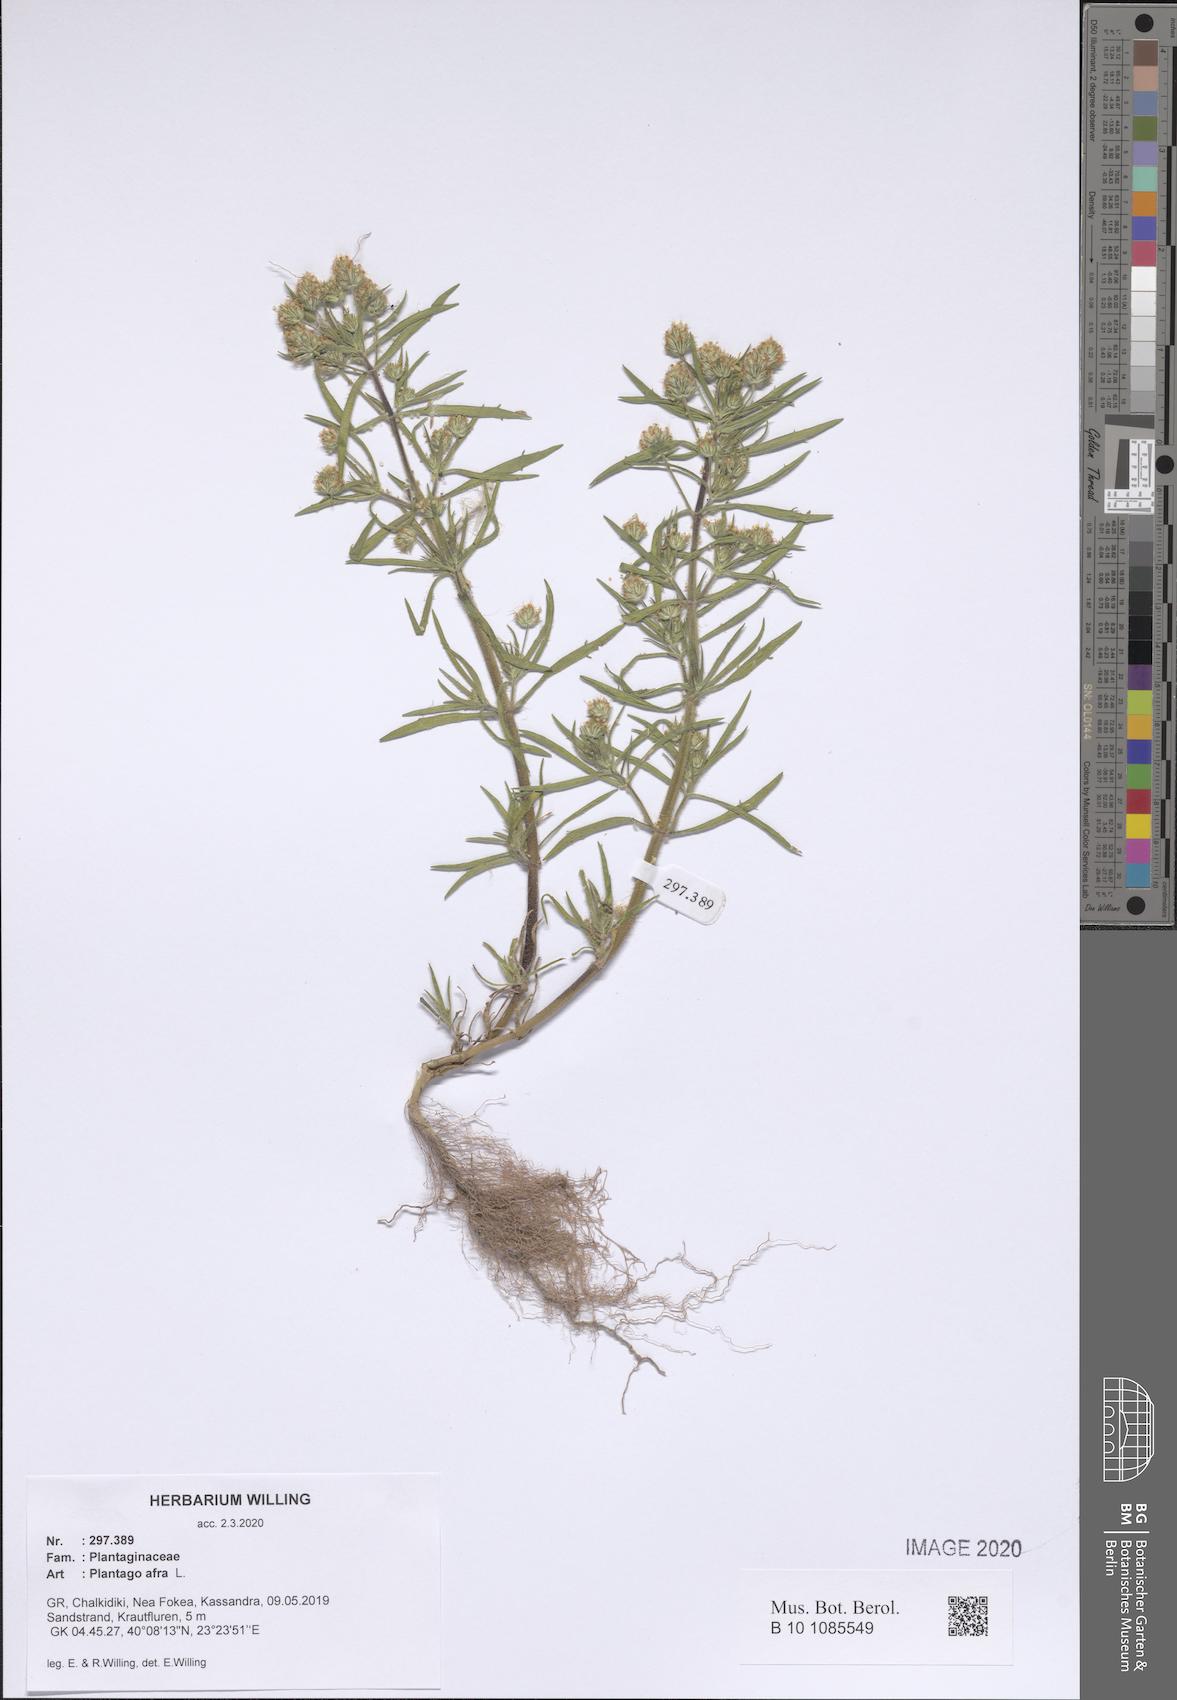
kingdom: Plantae
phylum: Tracheophyta
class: Magnoliopsida
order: Lamiales
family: Plantaginaceae
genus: Plantago
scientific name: Plantago afra
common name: Glandular plantain
